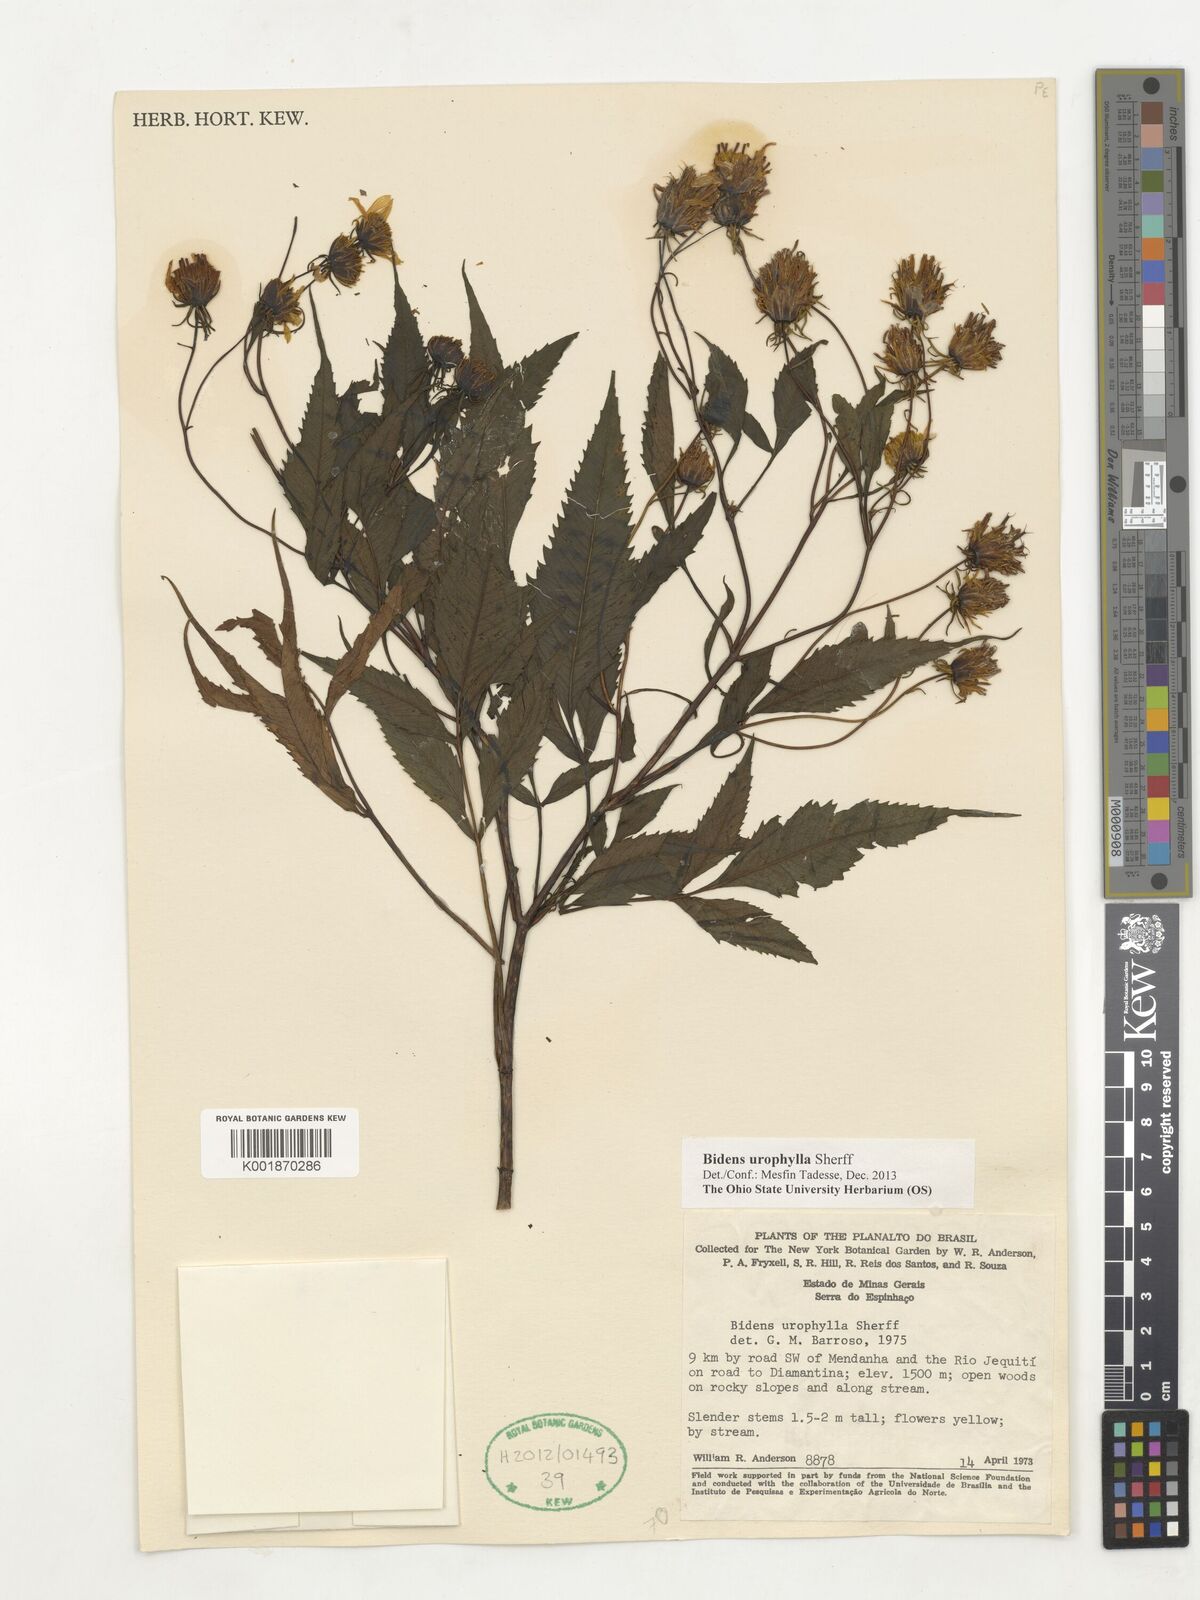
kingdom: Plantae
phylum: Tracheophyta
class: Magnoliopsida
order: Asterales
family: Asteraceae
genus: Bidens
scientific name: Bidens urophylla
